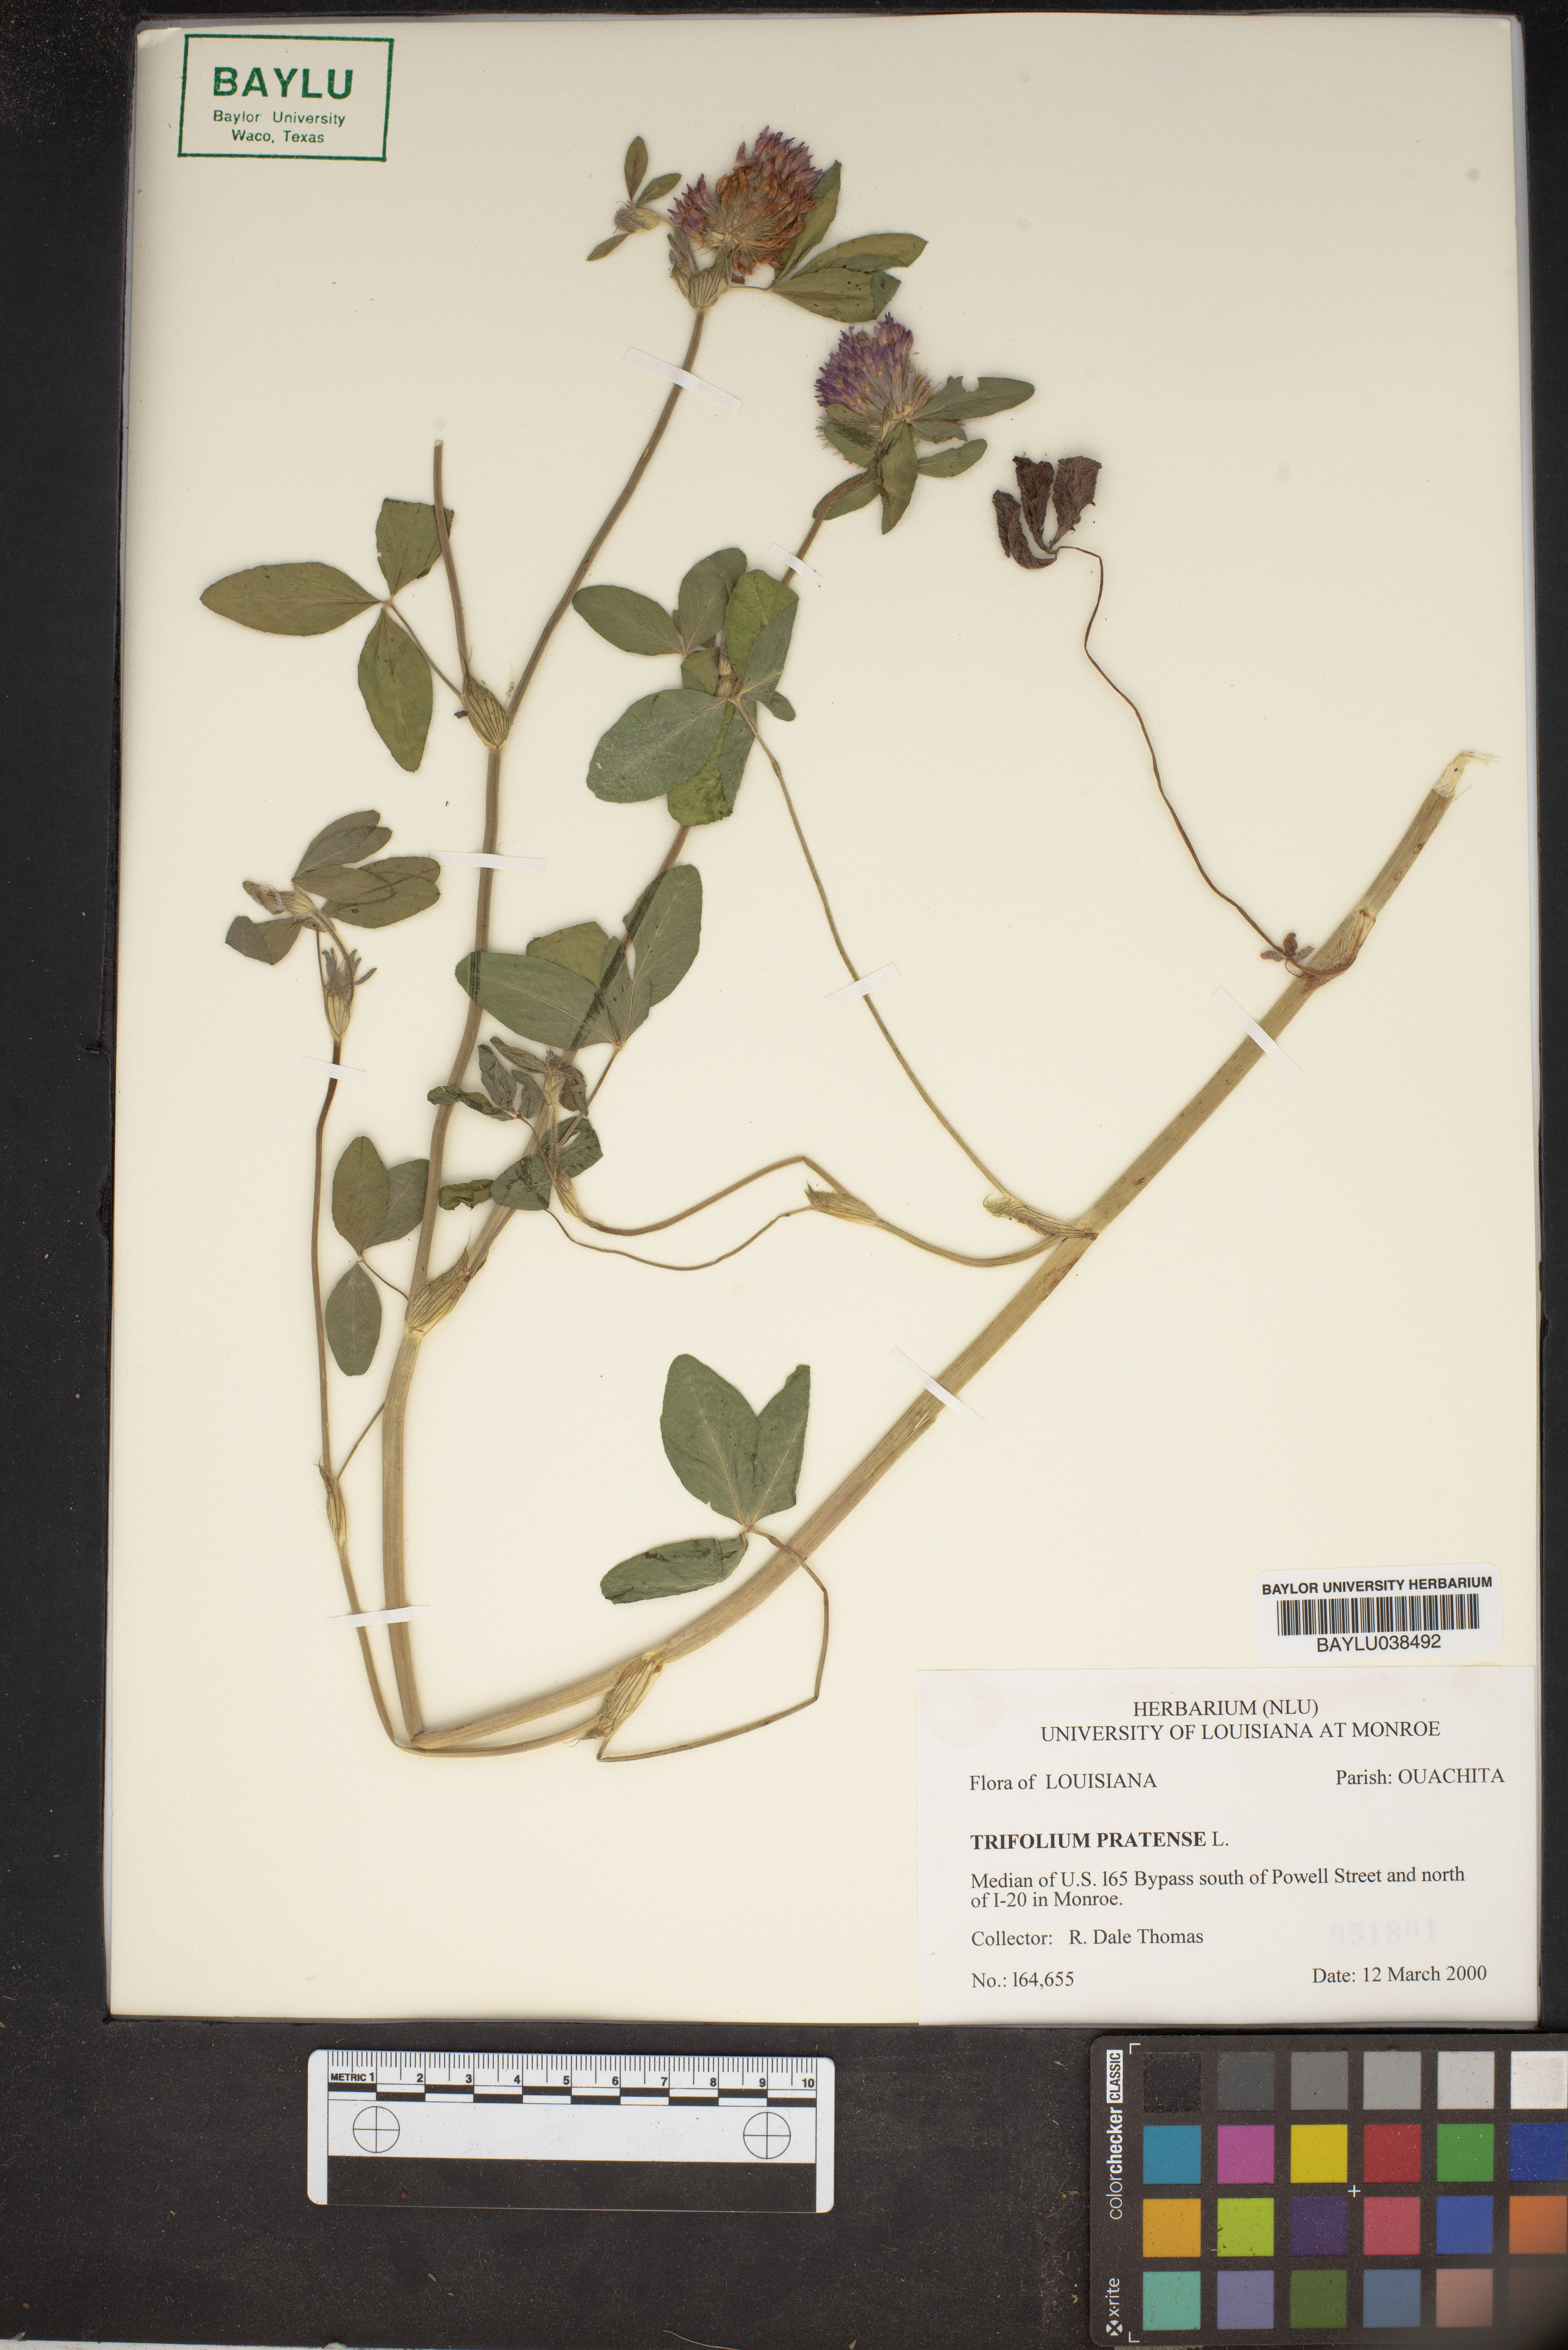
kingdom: Plantae
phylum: Tracheophyta
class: Magnoliopsida
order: Fabales
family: Fabaceae
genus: Trifolium
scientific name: Trifolium pratense
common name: Red clover
